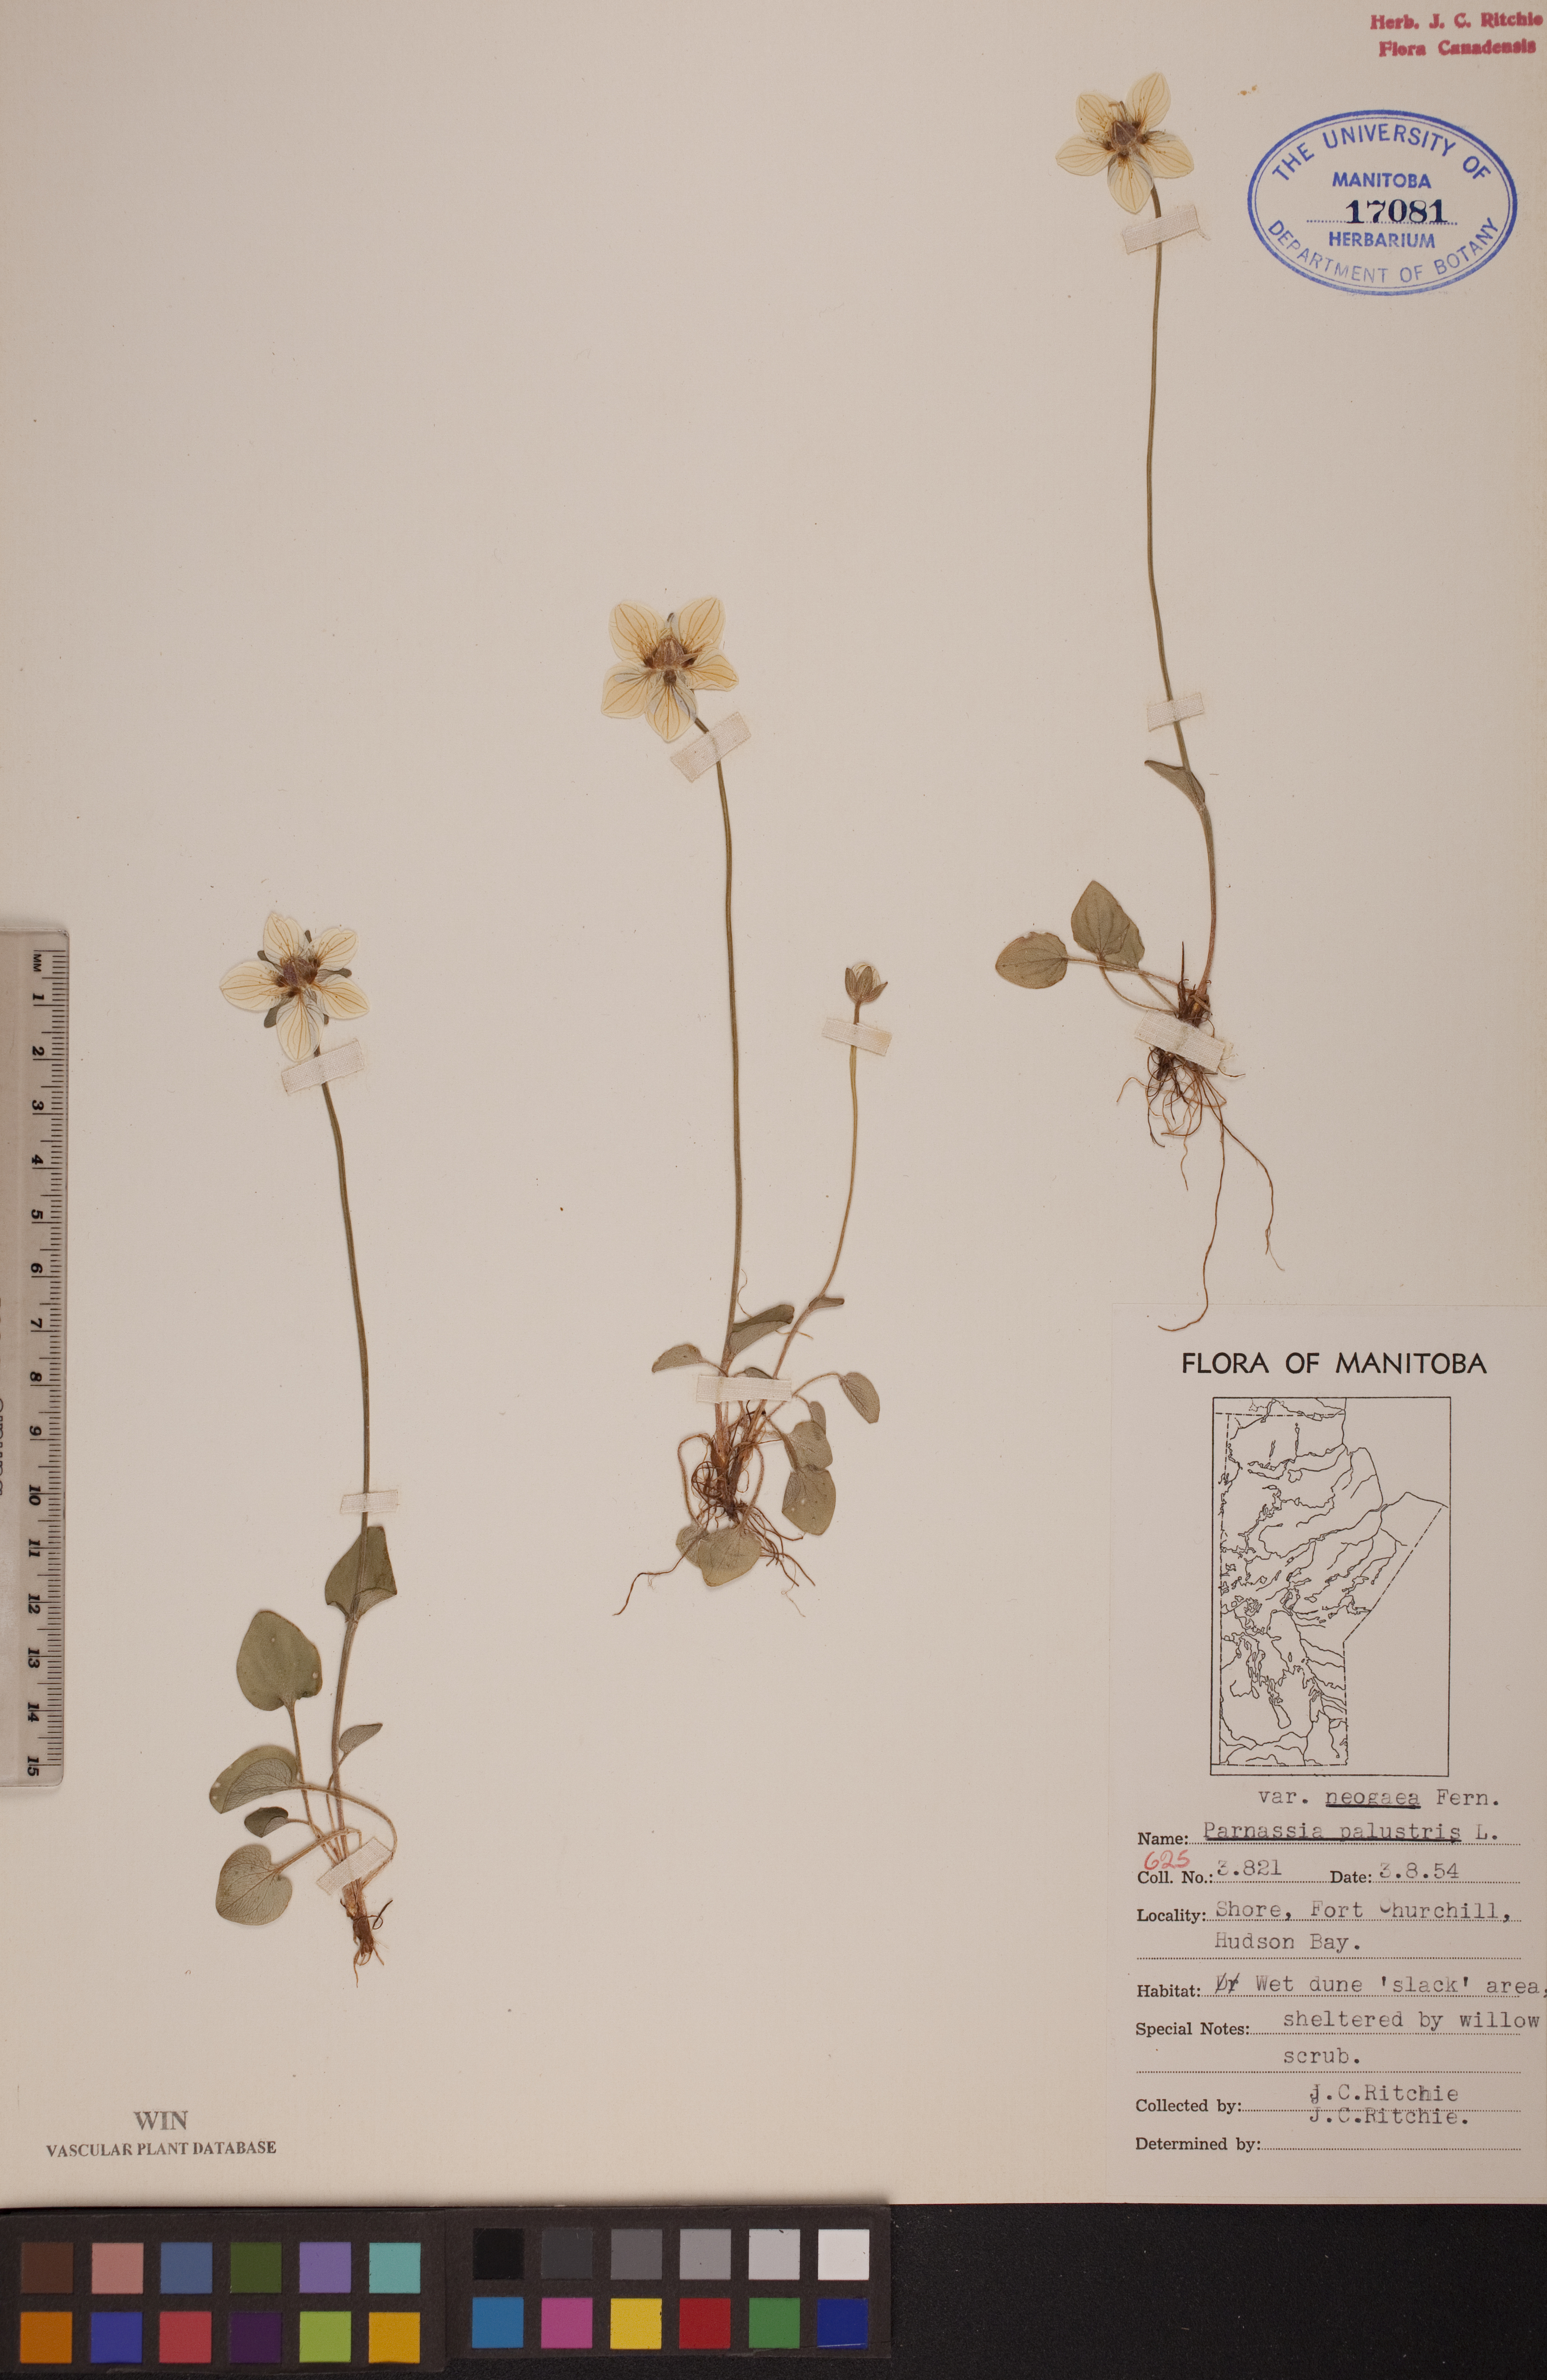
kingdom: Plantae
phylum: Tracheophyta
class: Magnoliopsida
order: Celastrales
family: Parnassiaceae
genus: Parnassia
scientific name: Parnassia palustris
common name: Grass-of-parnassus
